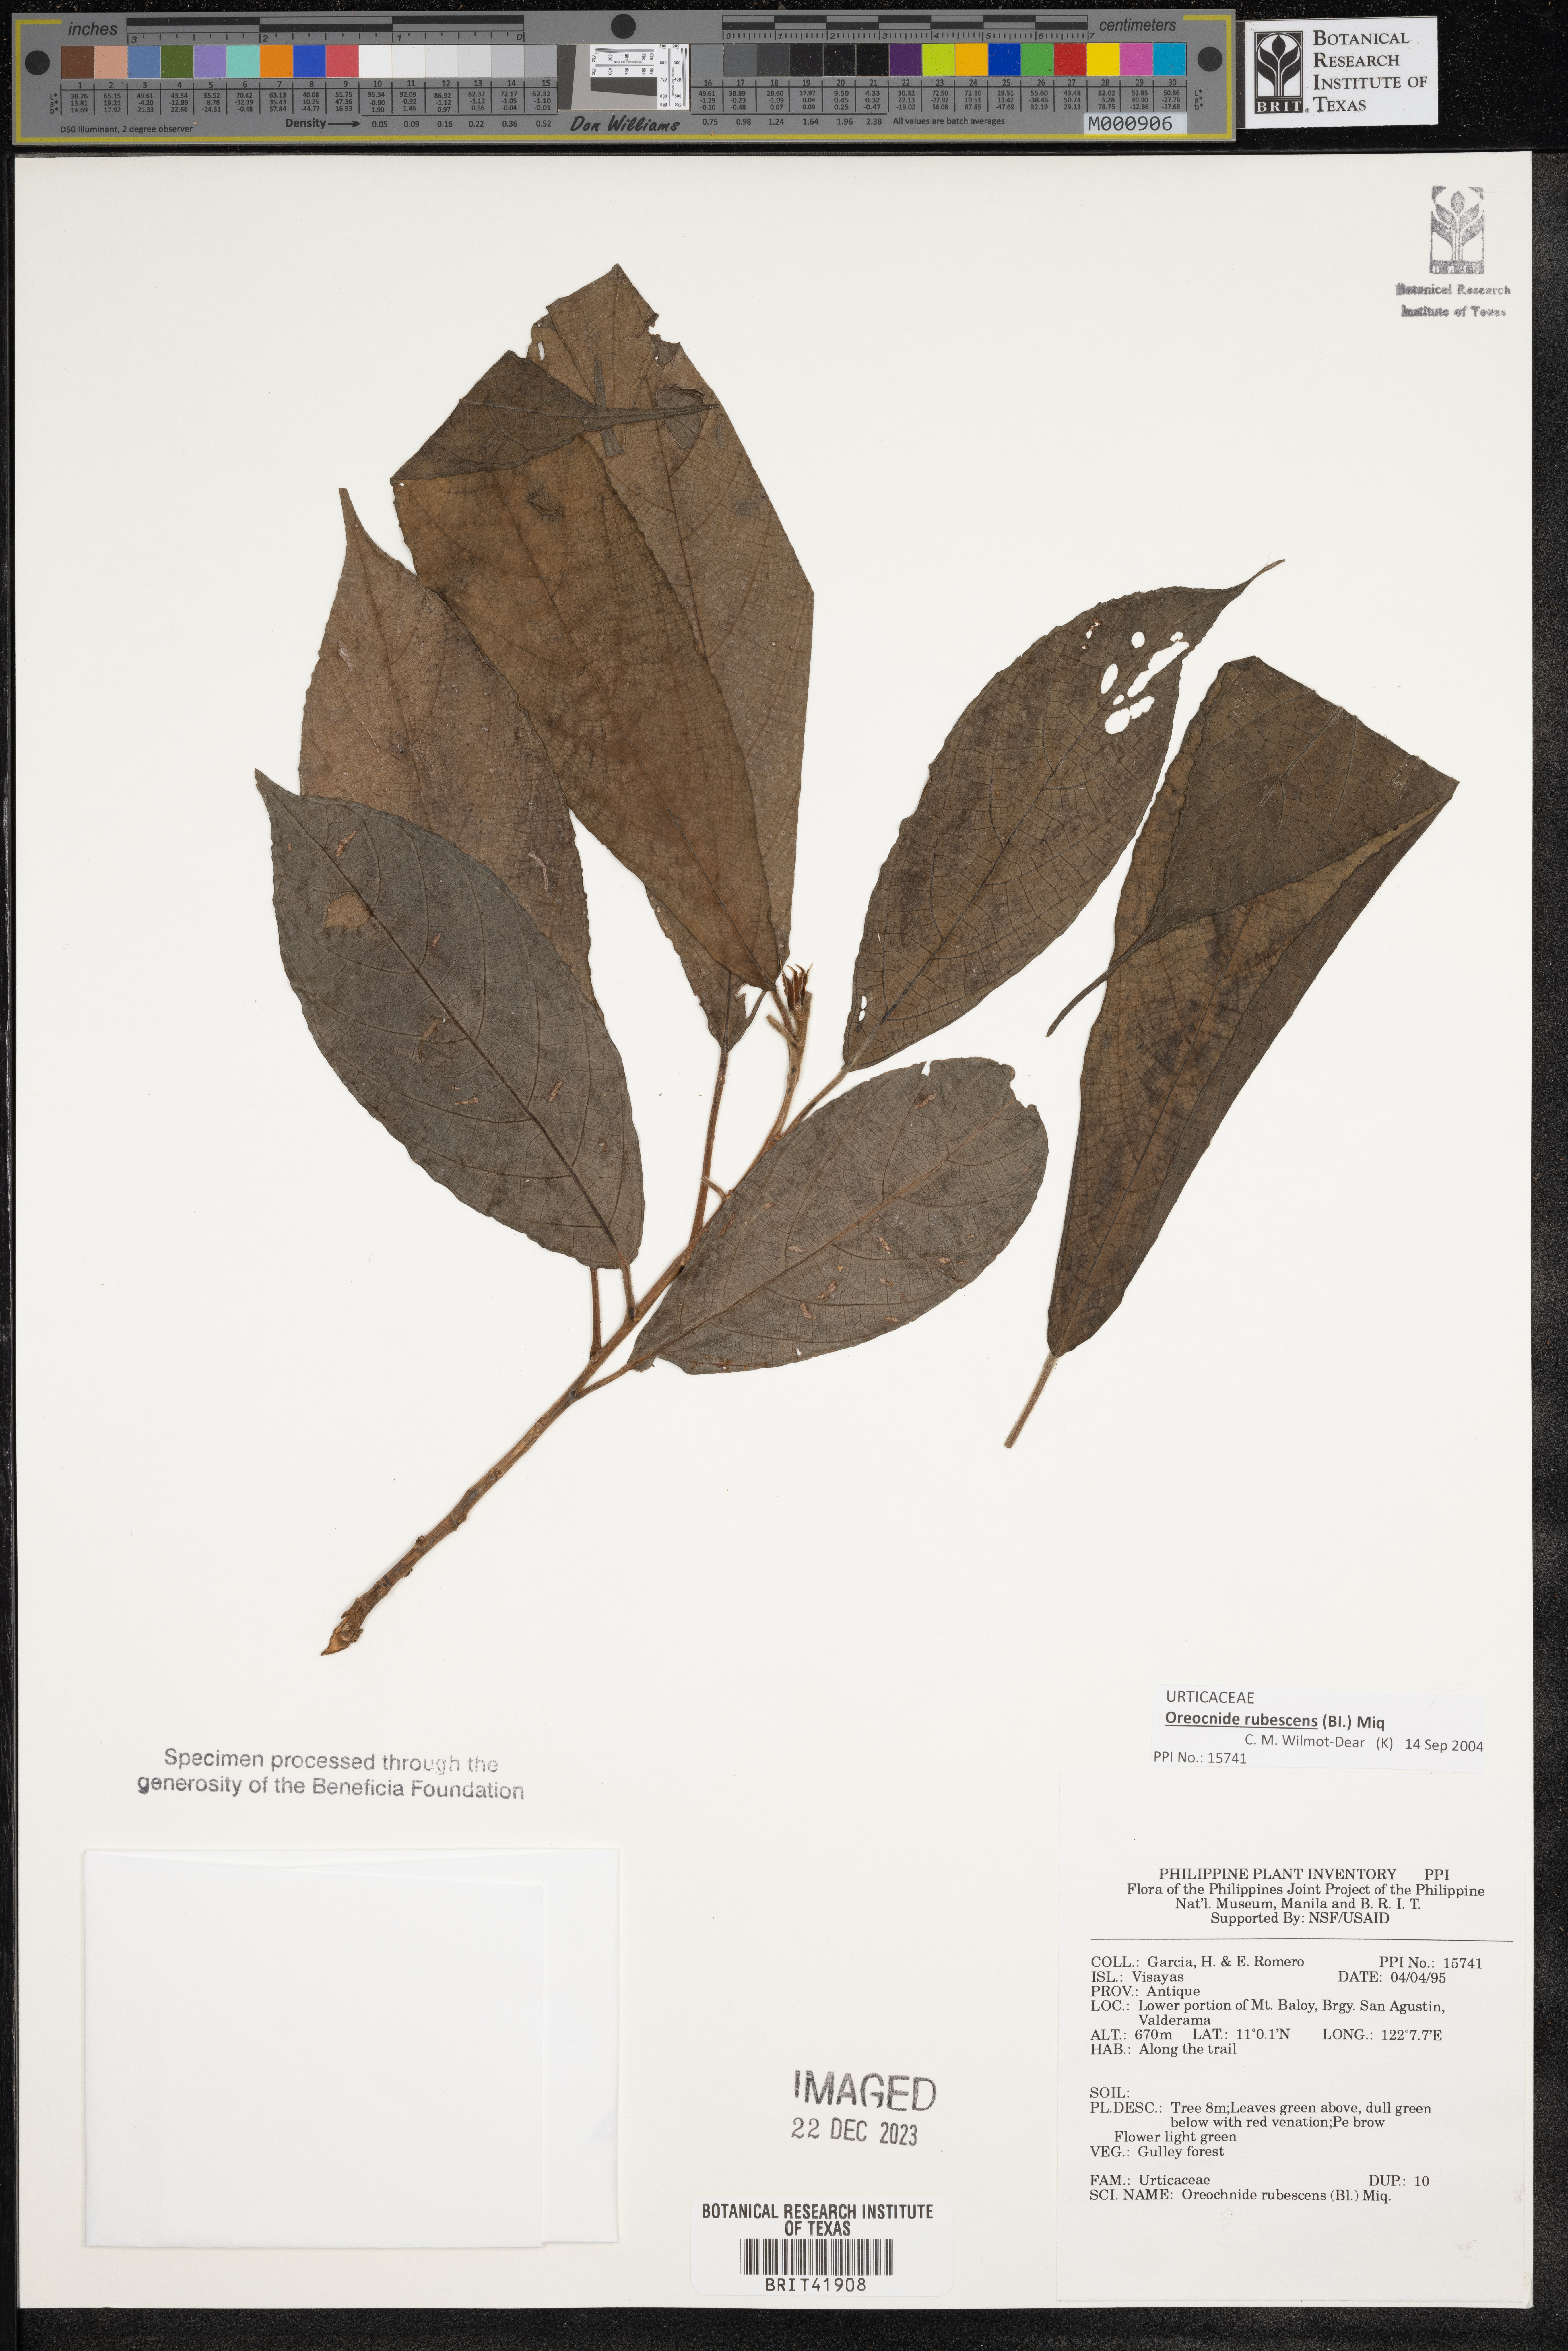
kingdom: Plantae
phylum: Tracheophyta
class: Magnoliopsida
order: Rosales
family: Urticaceae
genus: Oreocnide
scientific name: Oreocnide rubescens
